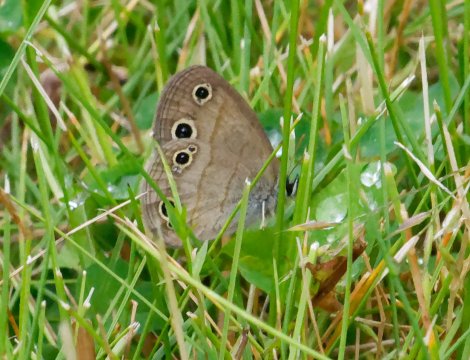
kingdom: Animalia
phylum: Arthropoda
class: Insecta
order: Lepidoptera
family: Nymphalidae
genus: Euptychia
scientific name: Euptychia cymela
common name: Little Wood Satyr
